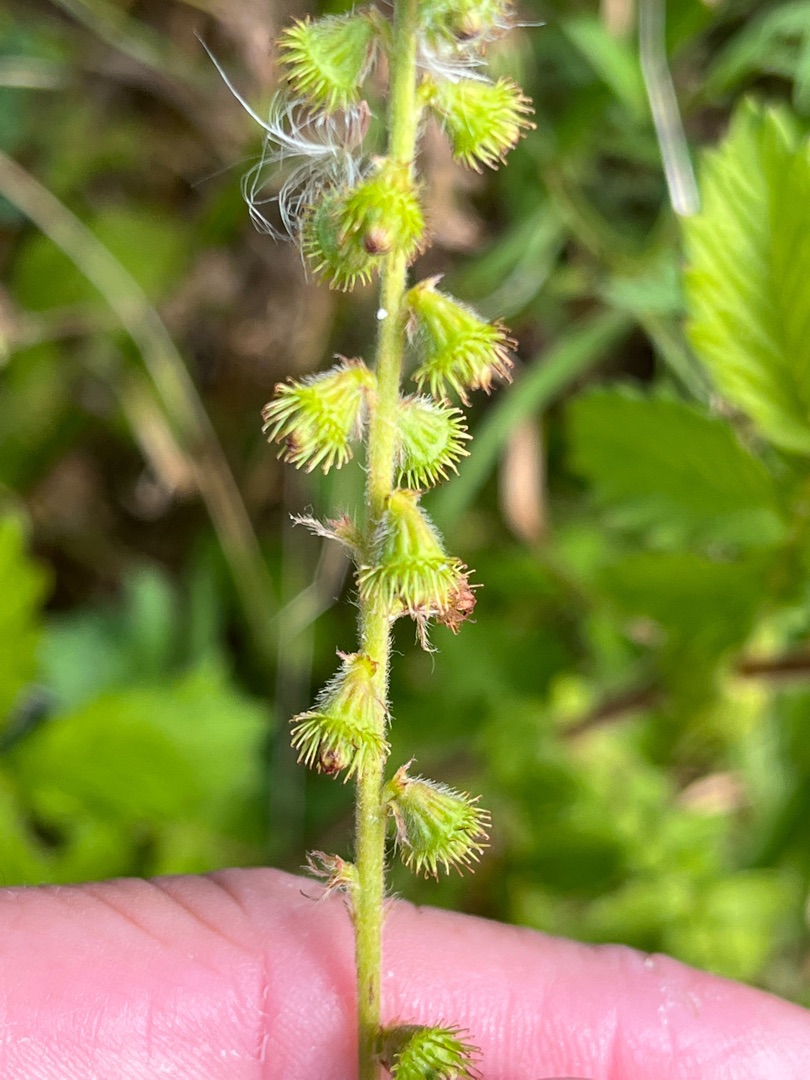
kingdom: Plantae
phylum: Tracheophyta
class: Magnoliopsida
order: Rosales
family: Rosaceae
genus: Agrimonia
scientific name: Agrimonia eupatoria
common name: Almindelig agermåne
